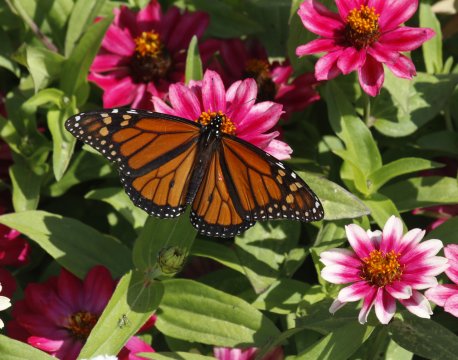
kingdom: Animalia
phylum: Arthropoda
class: Insecta
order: Lepidoptera
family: Nymphalidae
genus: Danaus
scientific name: Danaus plexippus
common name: Monarch
